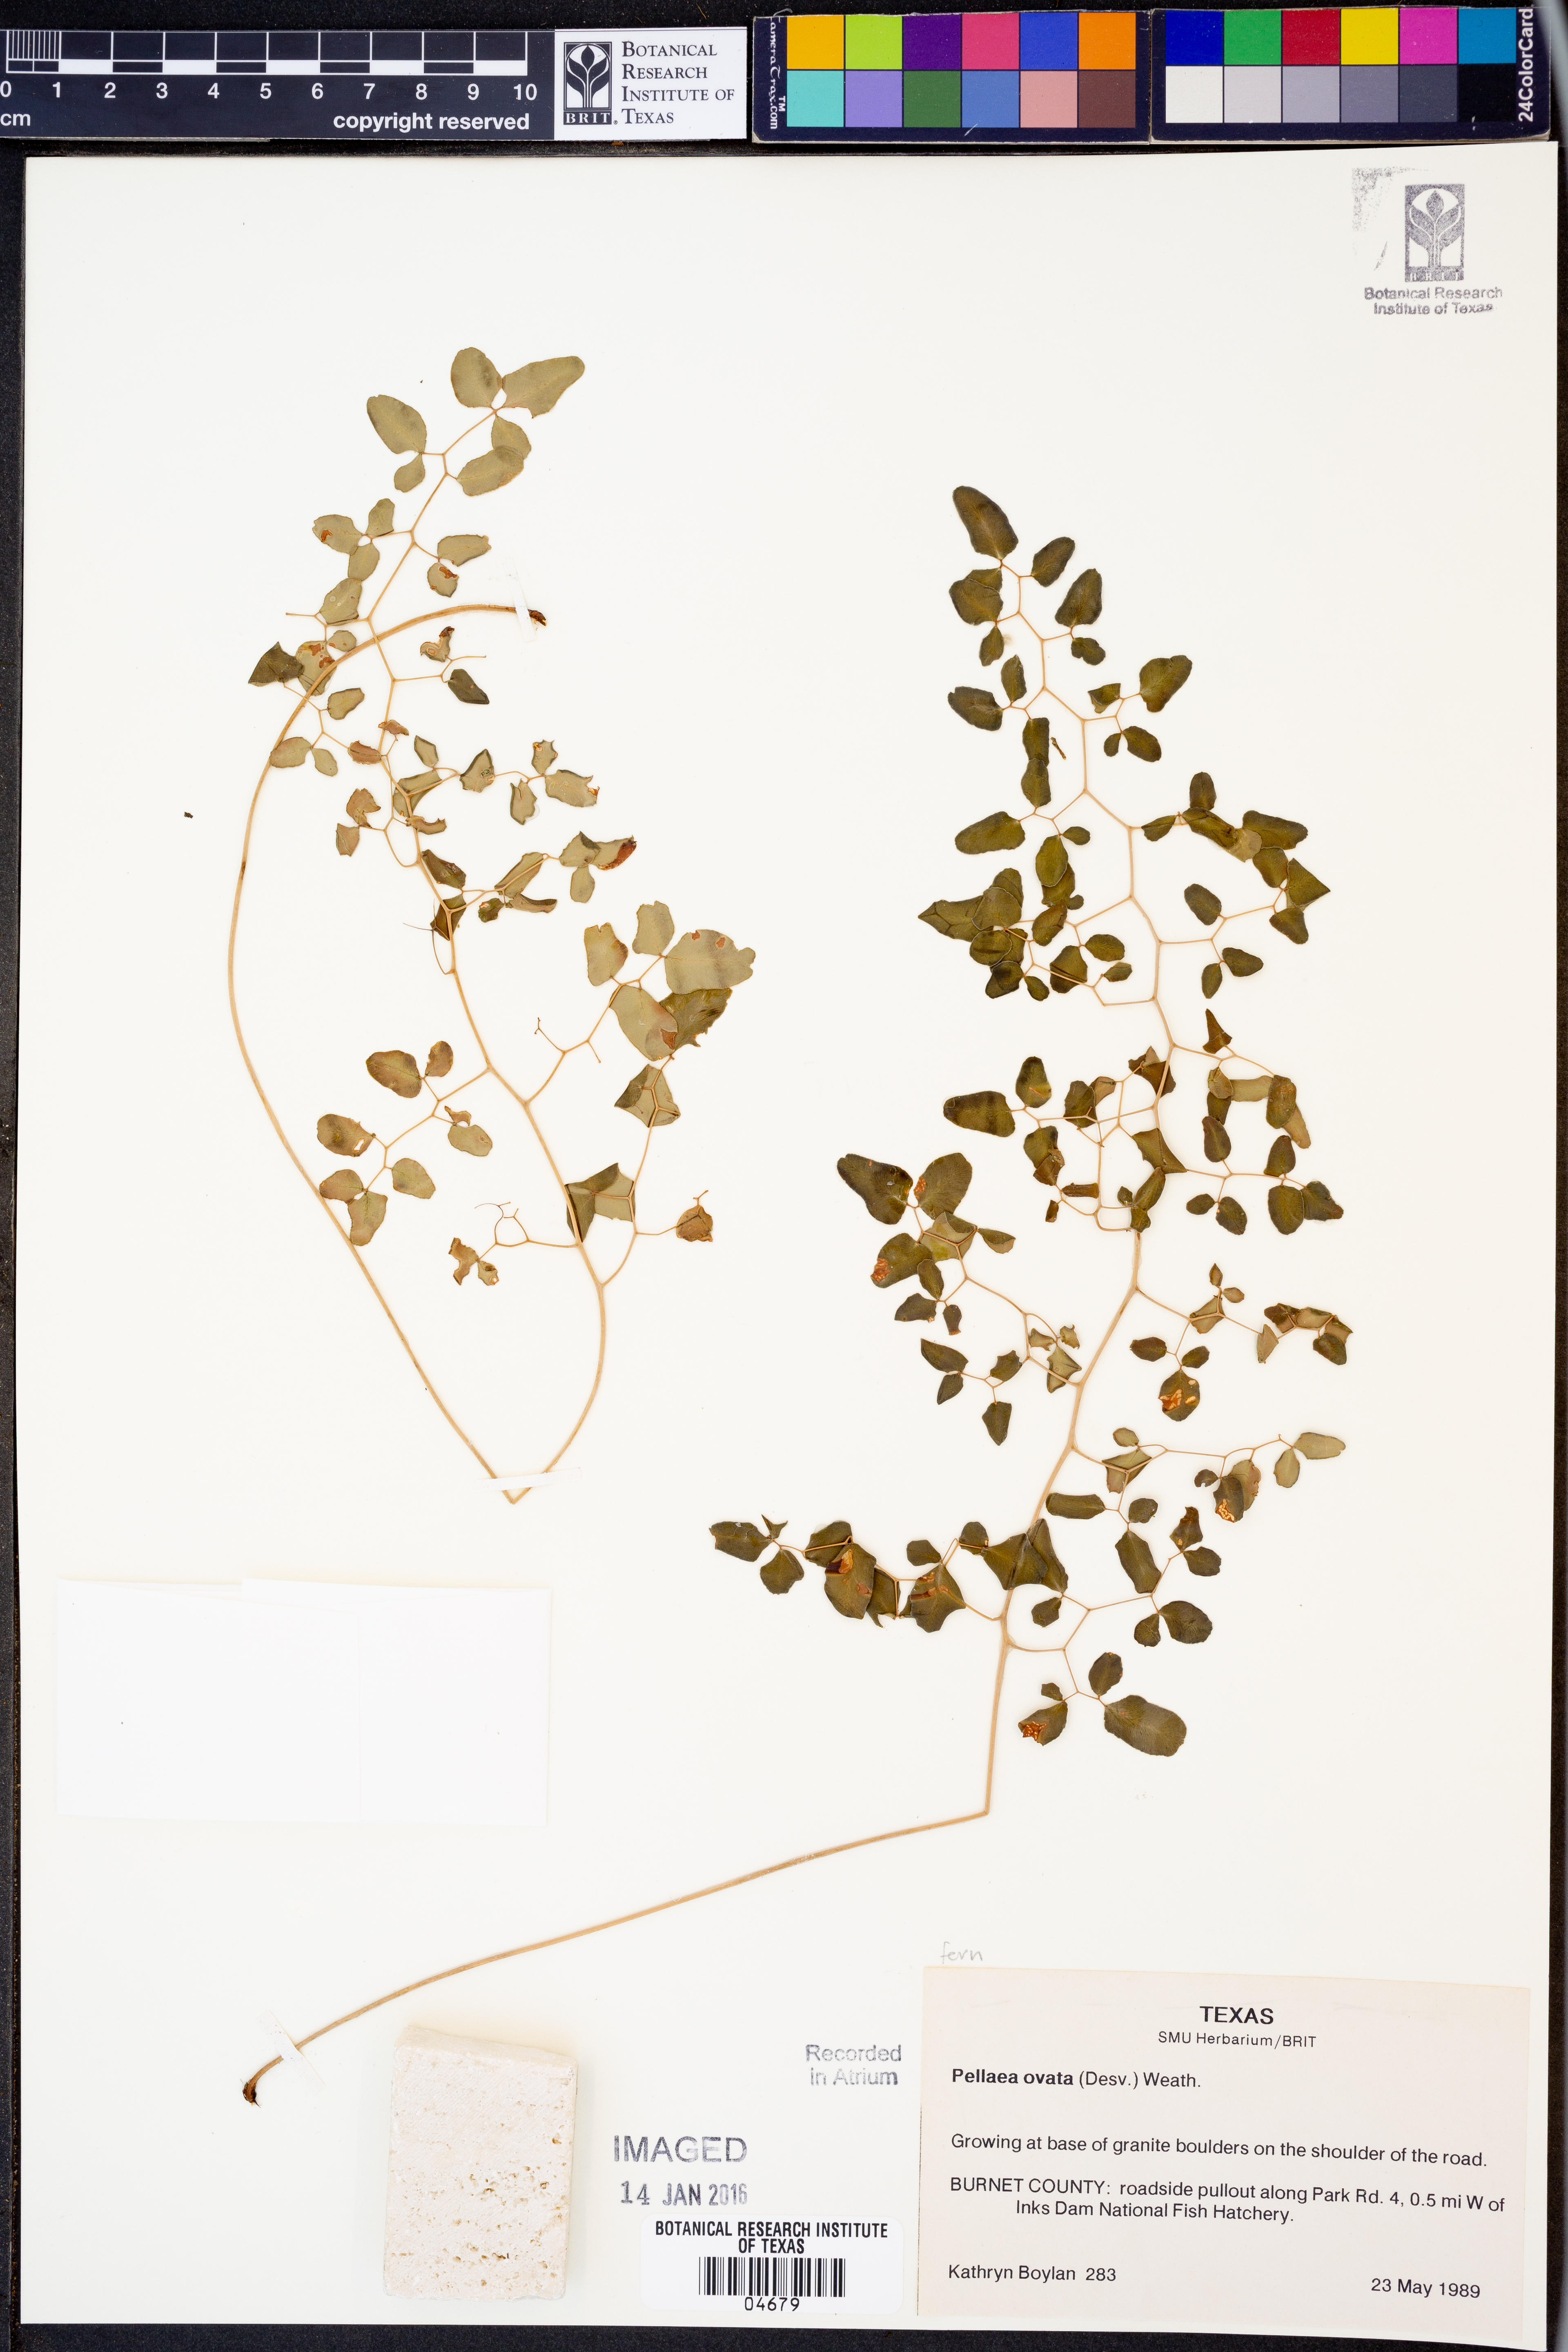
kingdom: Plantae
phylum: Tracheophyta
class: Polypodiopsida
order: Polypodiales
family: Pteridaceae
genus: Pellaea
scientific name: Pellaea ovata
